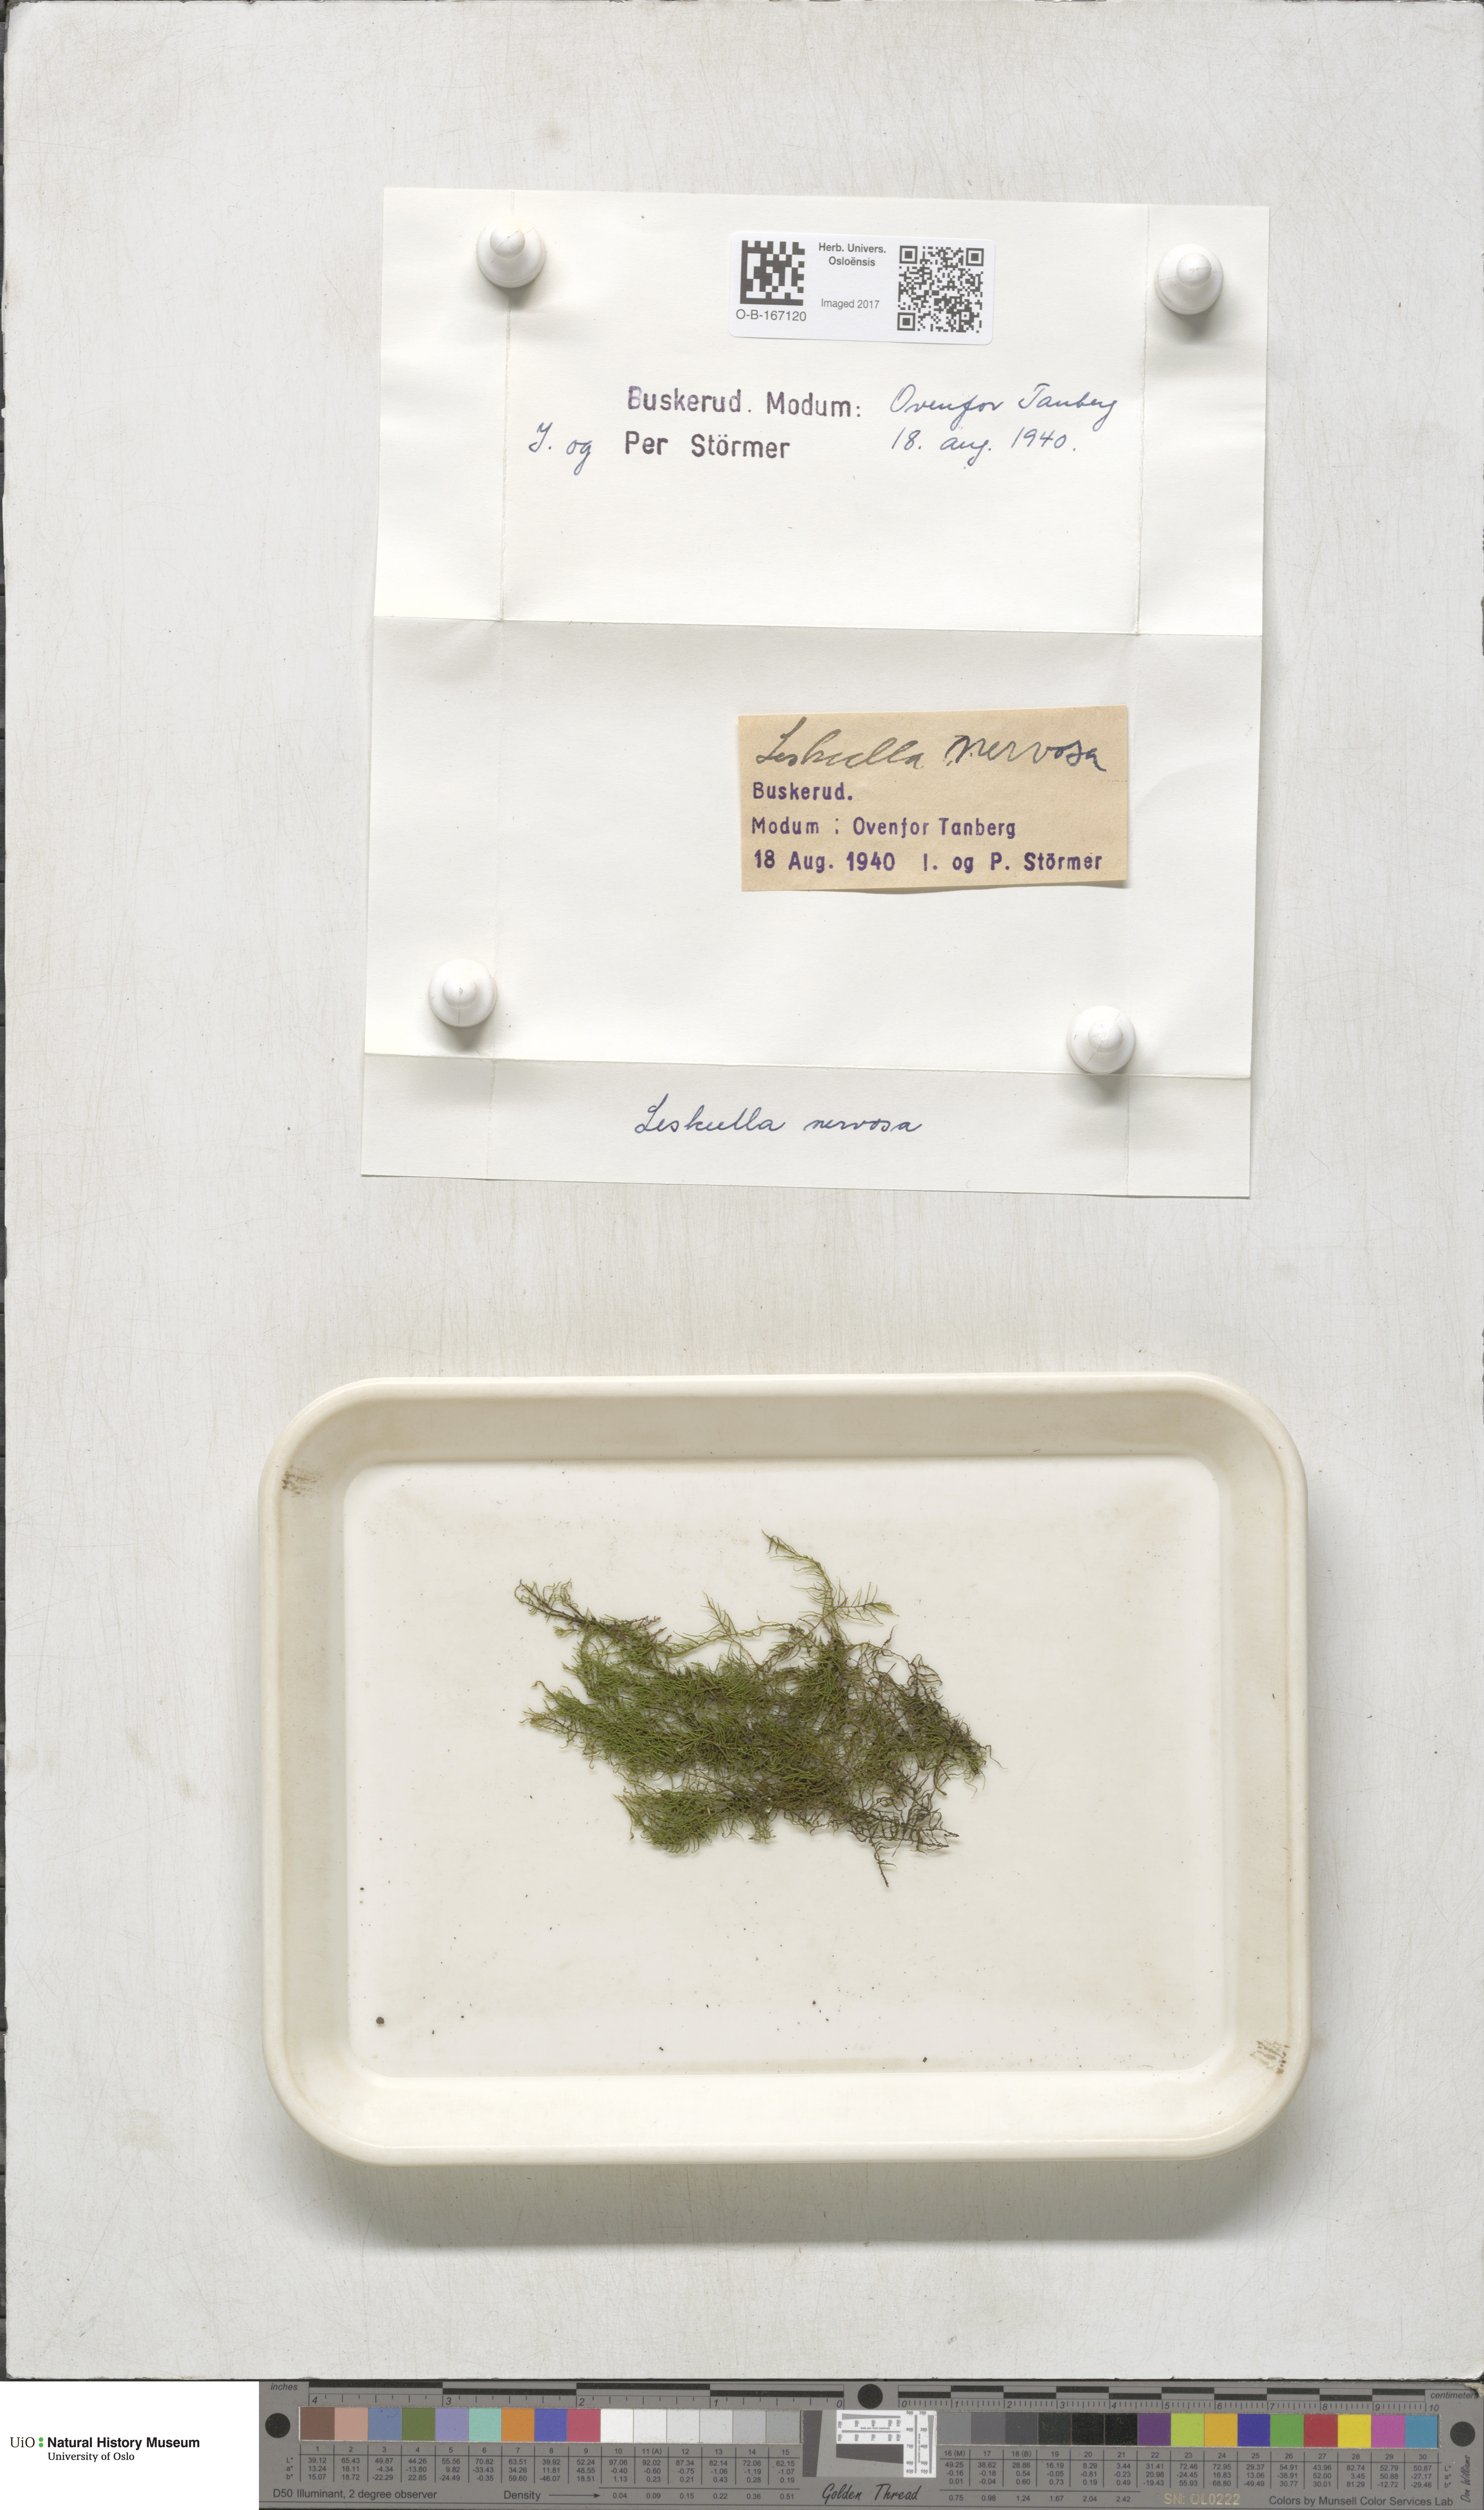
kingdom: Plantae
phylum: Bryophyta
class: Bryopsida
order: Hypnales
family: Pseudoleskeellaceae
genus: Pseudoleskeella
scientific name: Pseudoleskeella nervosa
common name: Nerved leske's moss
